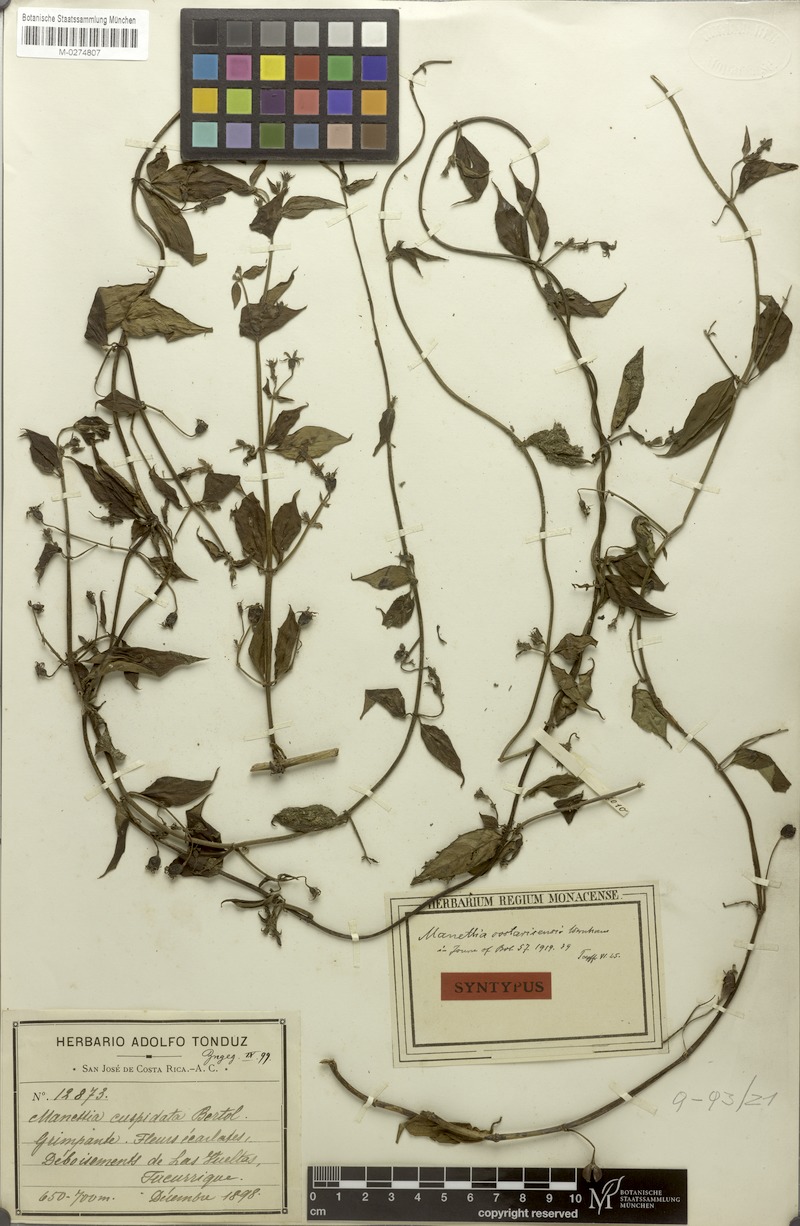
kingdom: Plantae
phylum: Tracheophyta
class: Magnoliopsida
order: Gentianales
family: Rubiaceae
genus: Manettia
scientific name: Manettia reclinata
